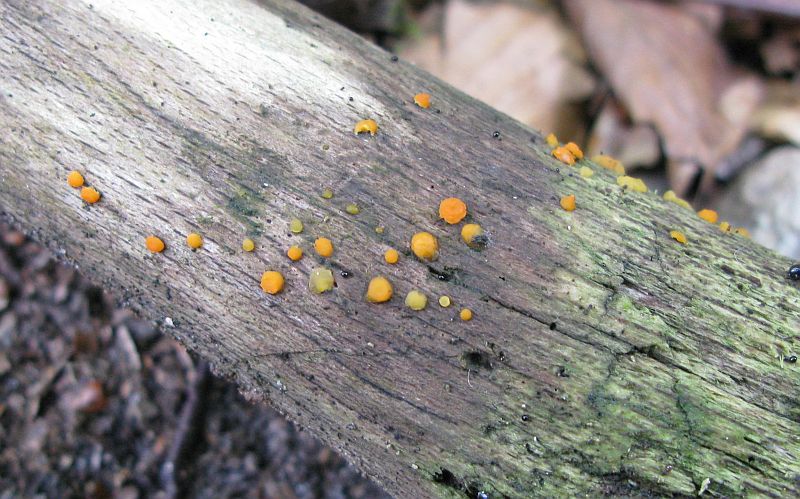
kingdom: Fungi
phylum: Basidiomycota
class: Dacrymycetes
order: Dacrymycetales
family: Dacrymycetaceae
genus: Dacrymyces
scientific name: Dacrymyces stillatus
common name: almindelig tåresvamp
